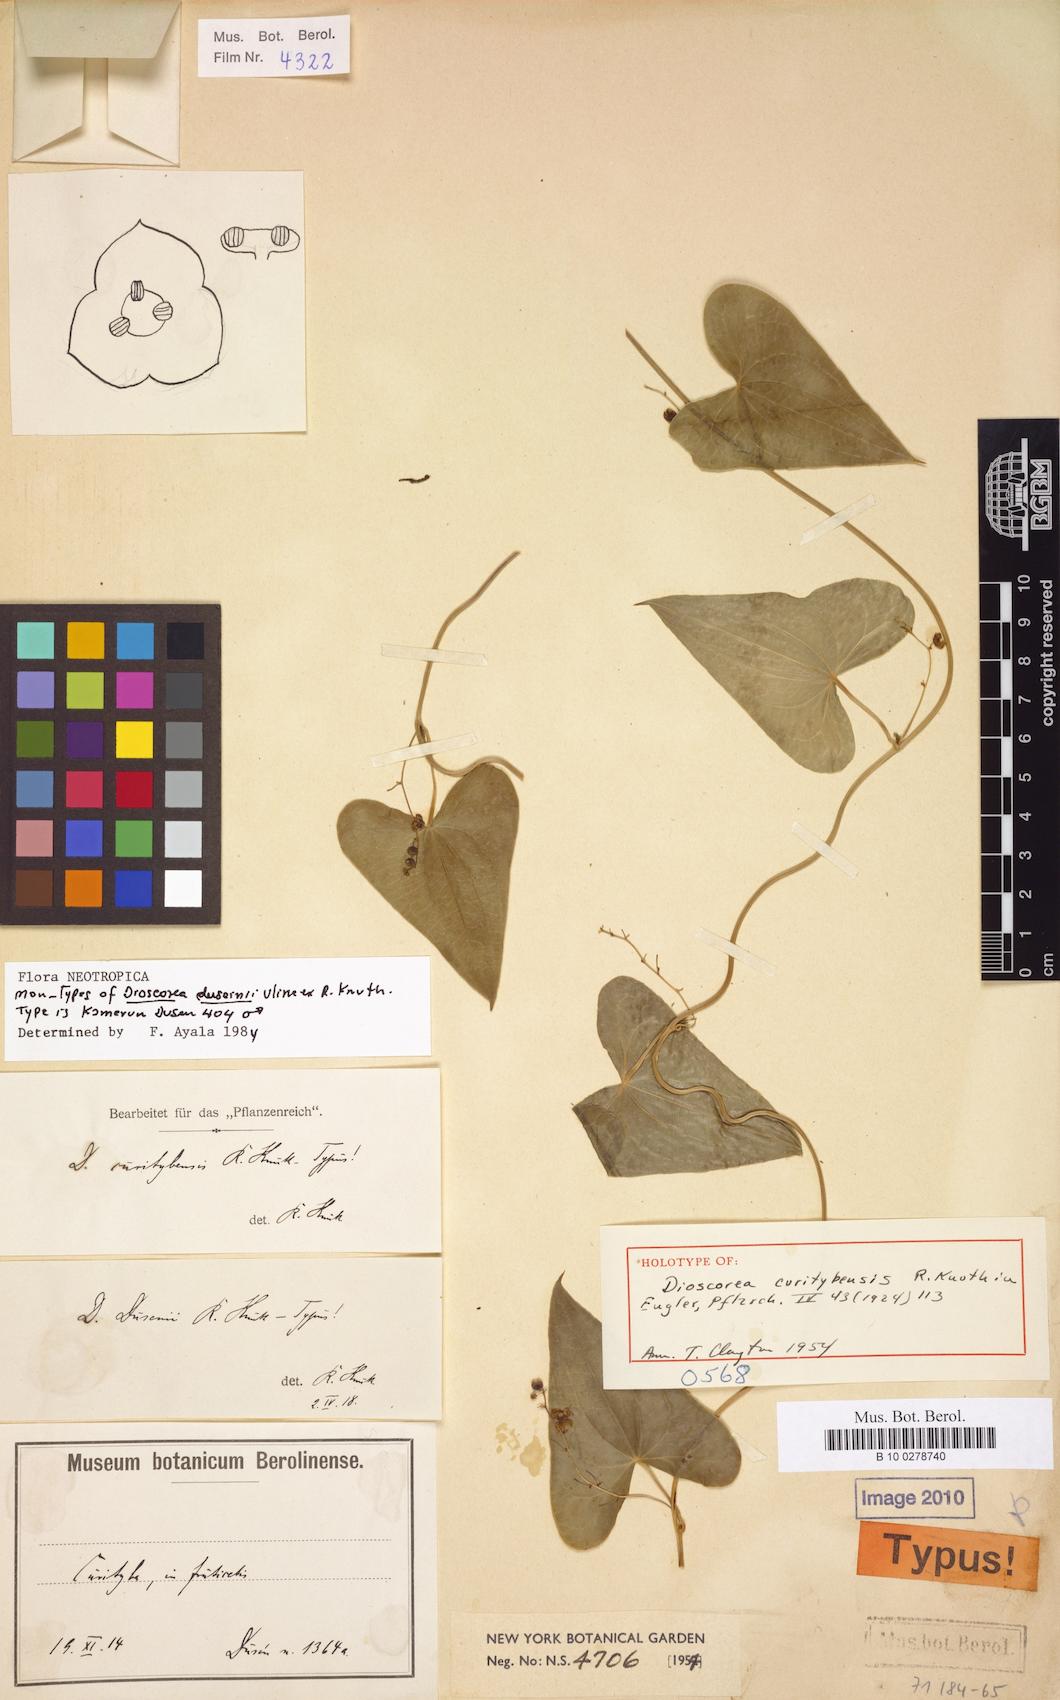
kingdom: Plantae
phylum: Tracheophyta
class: Liliopsida
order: Dioscoreales
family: Dioscoreaceae
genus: Dioscorea
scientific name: Dioscorea curitybensis
